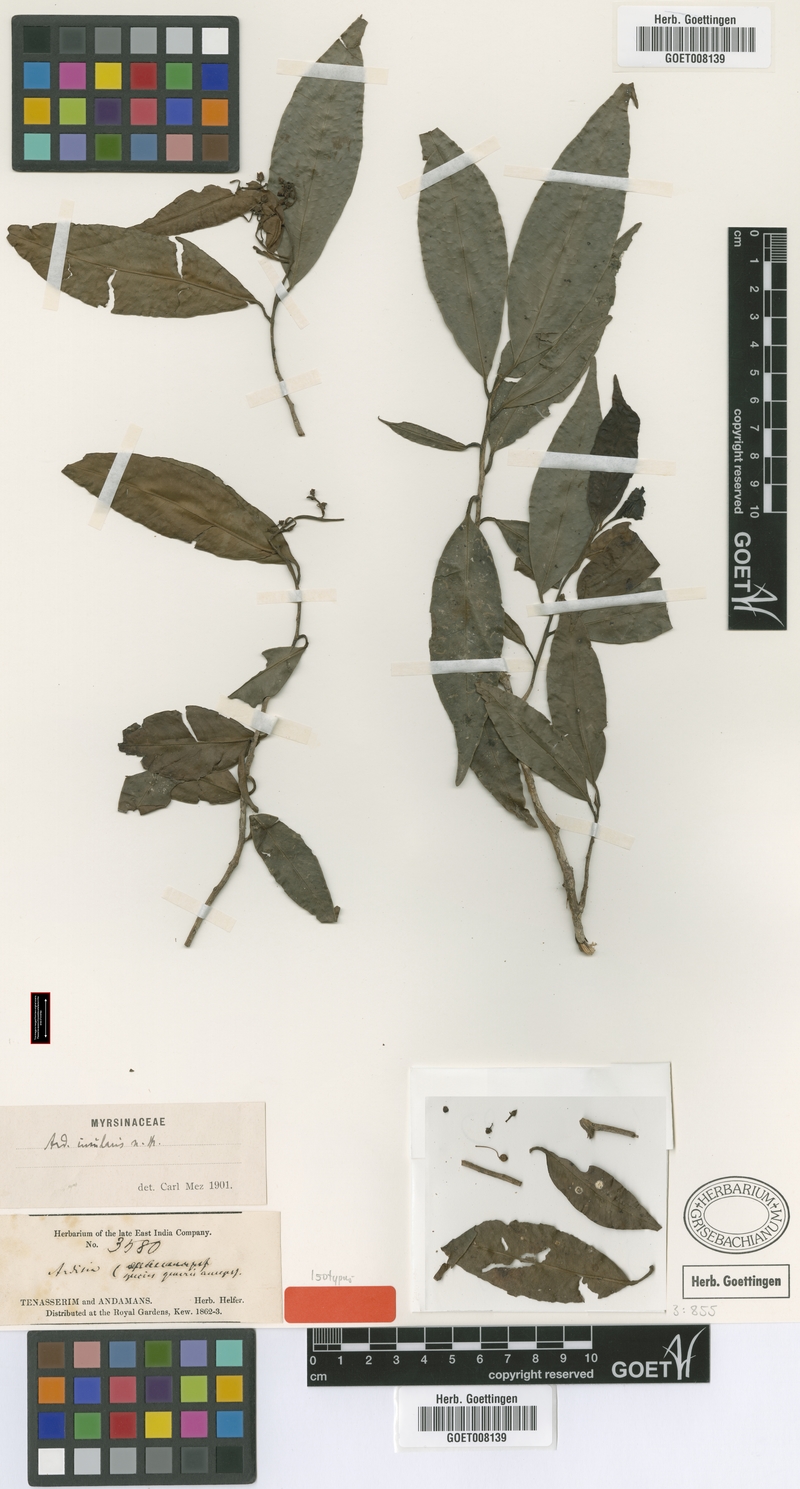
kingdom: Plantae
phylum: Tracheophyta
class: Magnoliopsida
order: Ericales
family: Primulaceae
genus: Ardisia
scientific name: Ardisia complanata
